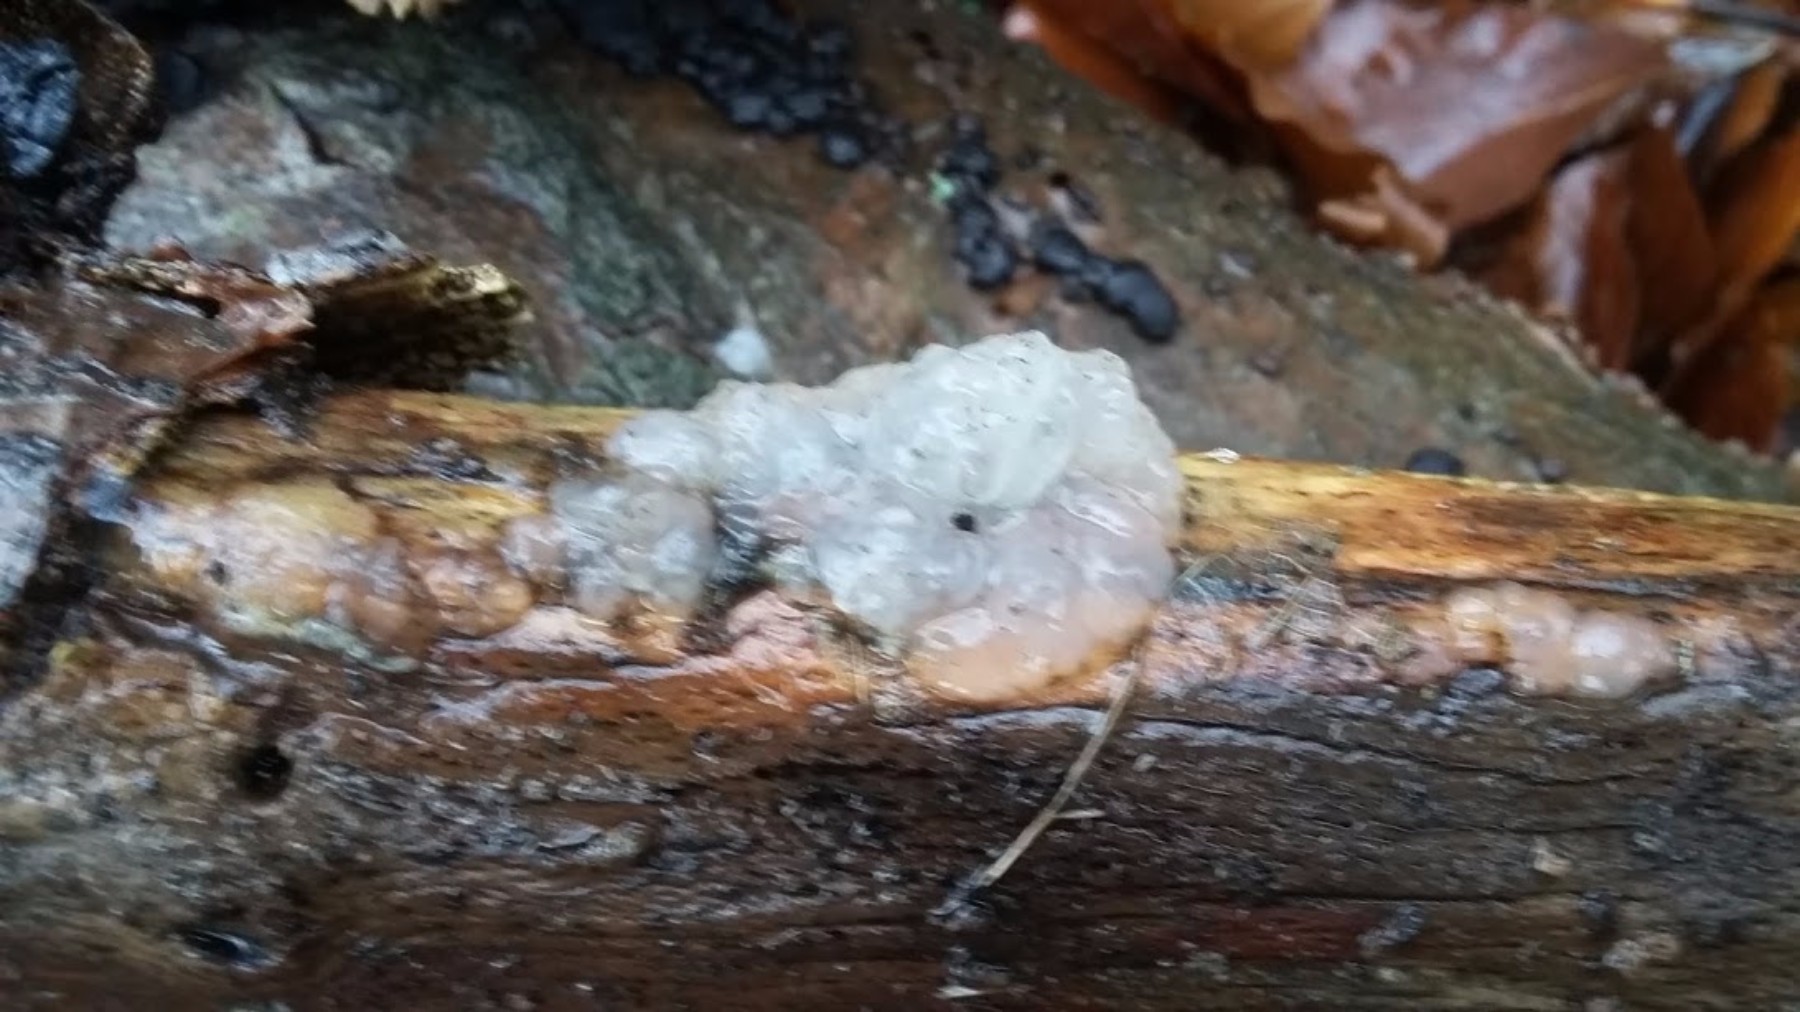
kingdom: Fungi
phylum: Basidiomycota
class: Agaricomycetes
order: Auriculariales
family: Hyaloriaceae
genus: Myxarium
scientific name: Myxarium nucleatum
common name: klar bævretop
